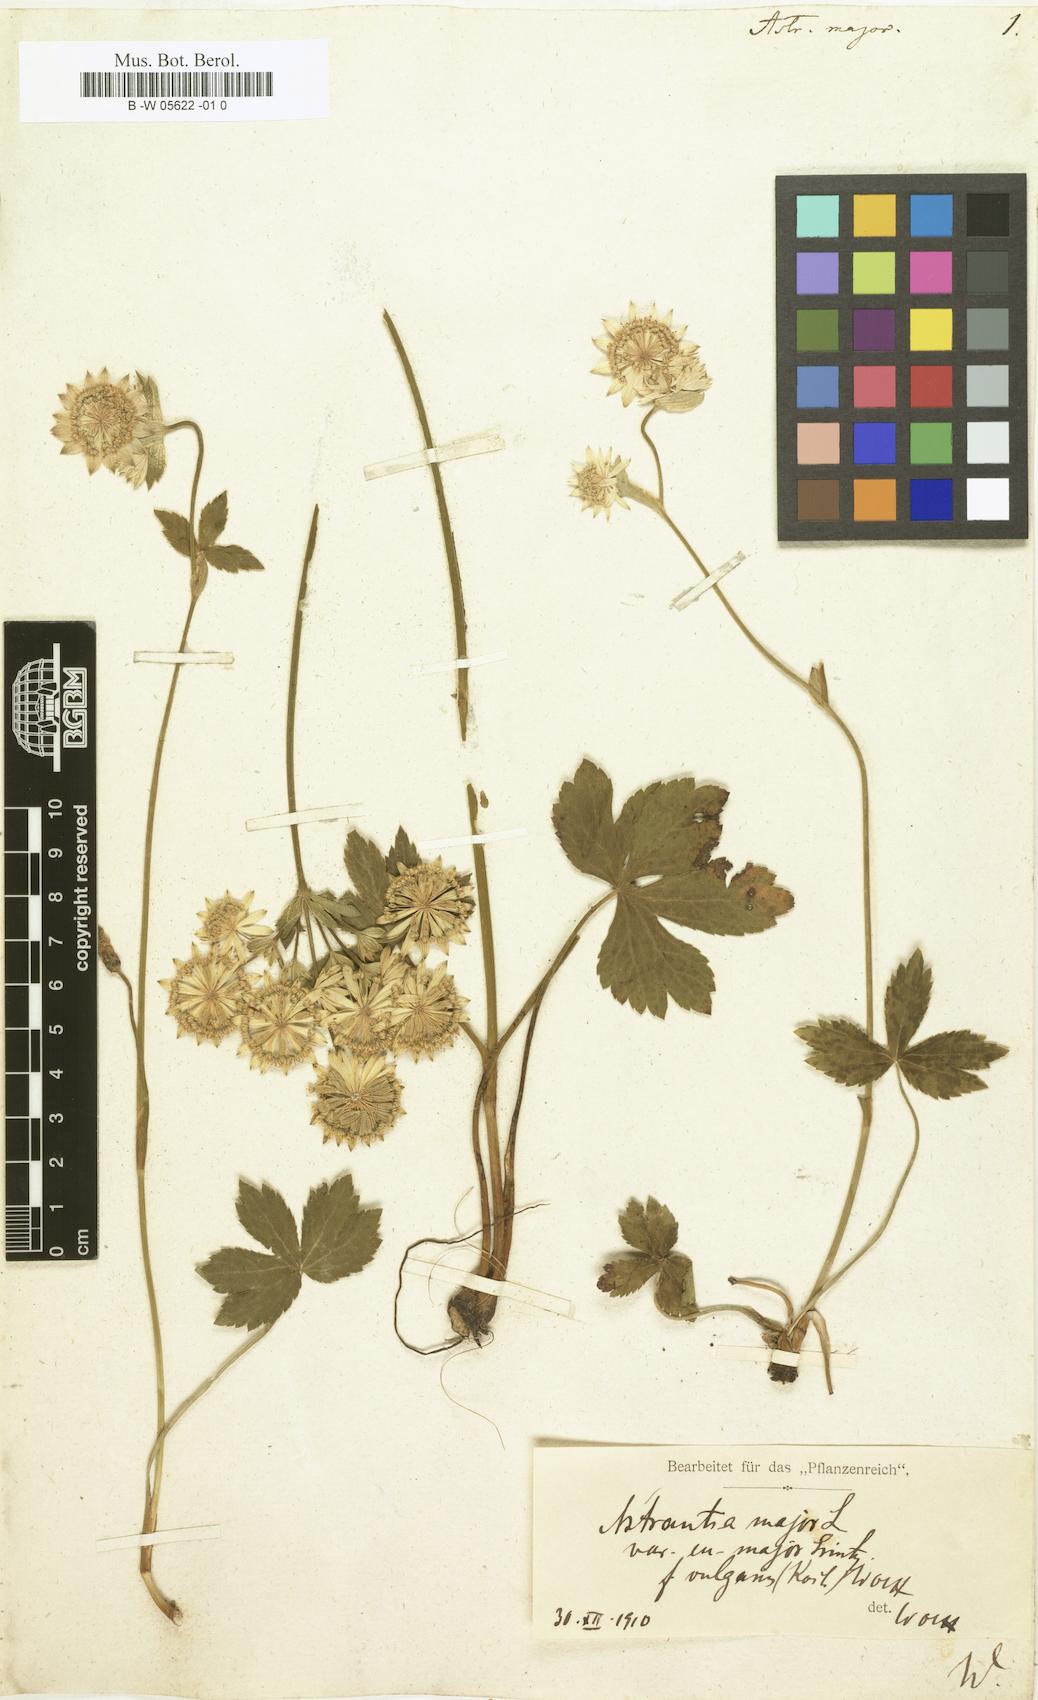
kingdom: Plantae
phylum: Tracheophyta
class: Magnoliopsida
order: Apiales
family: Apiaceae
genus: Astrantia
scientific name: Astrantia major
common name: Greater masterwort
